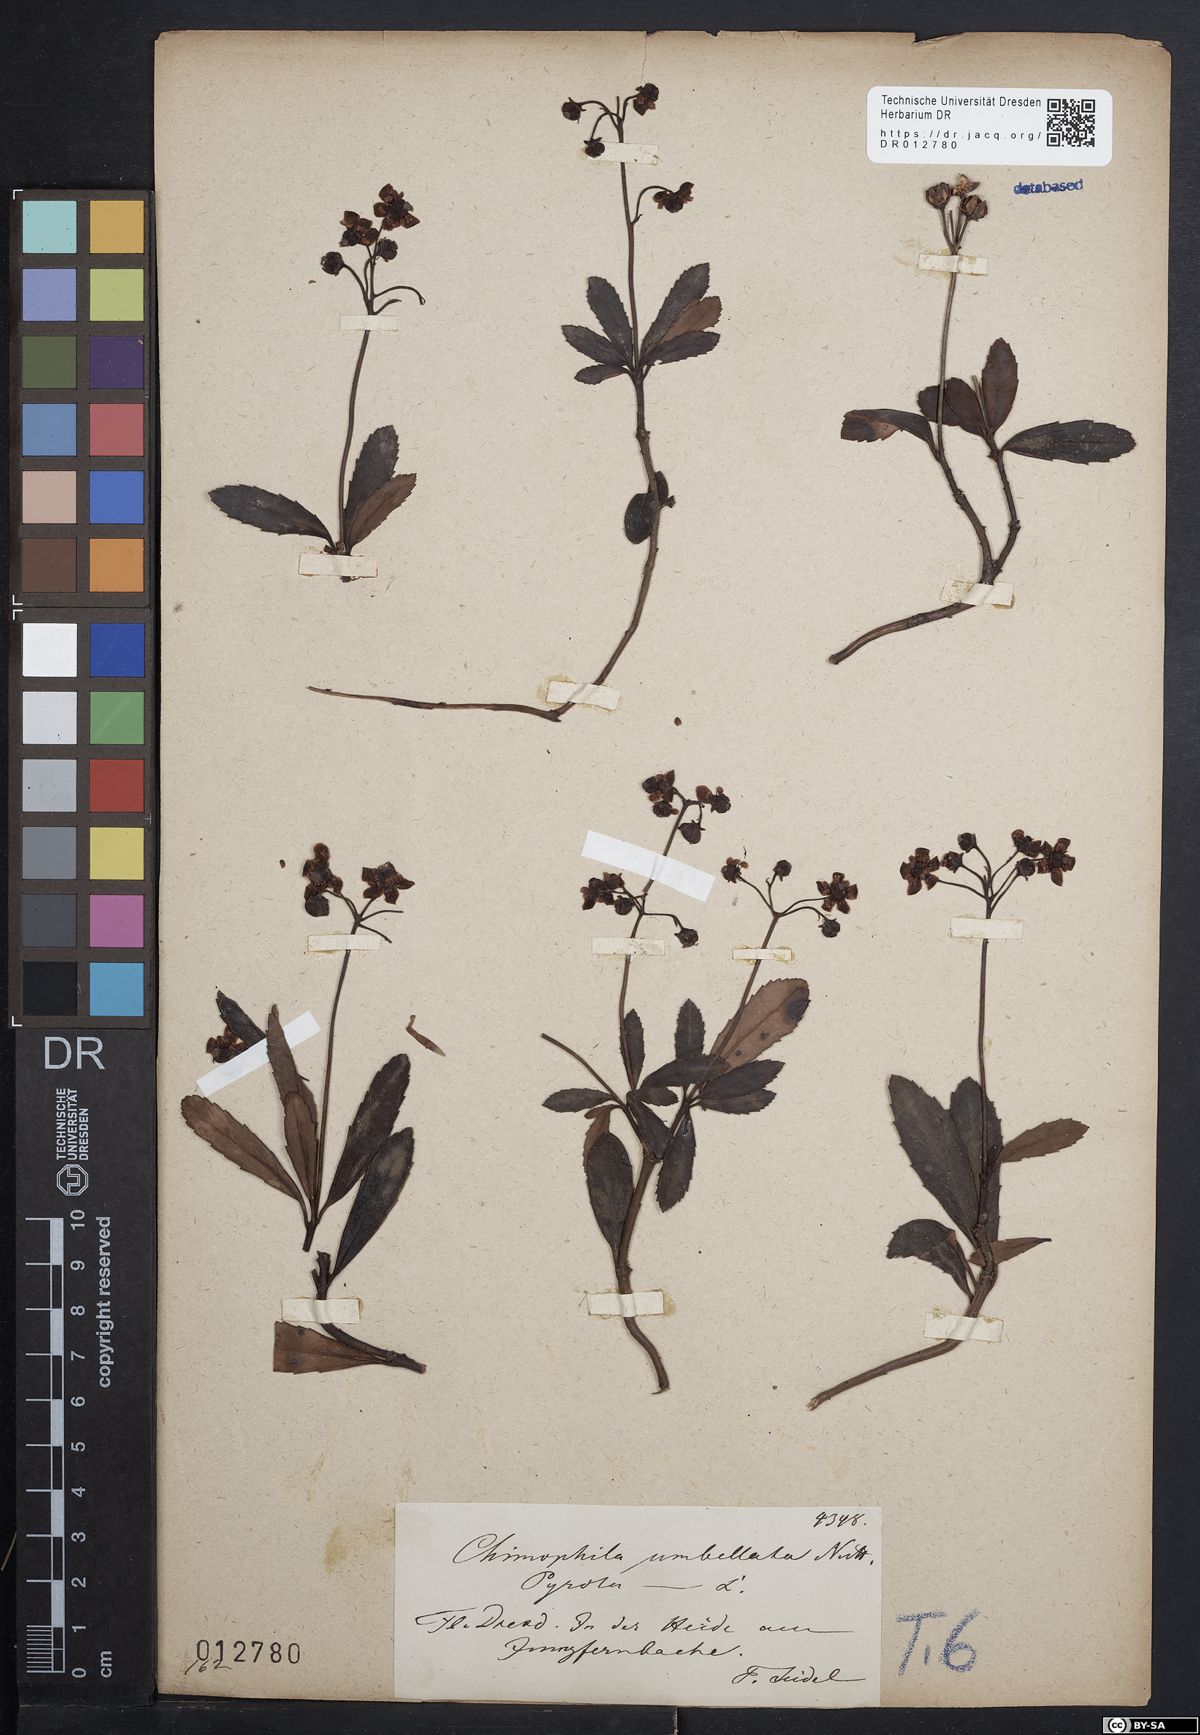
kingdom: Plantae
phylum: Tracheophyta
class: Magnoliopsida
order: Ericales
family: Ericaceae
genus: Chimaphila
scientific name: Chimaphila umbellata
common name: Pipsissewa
